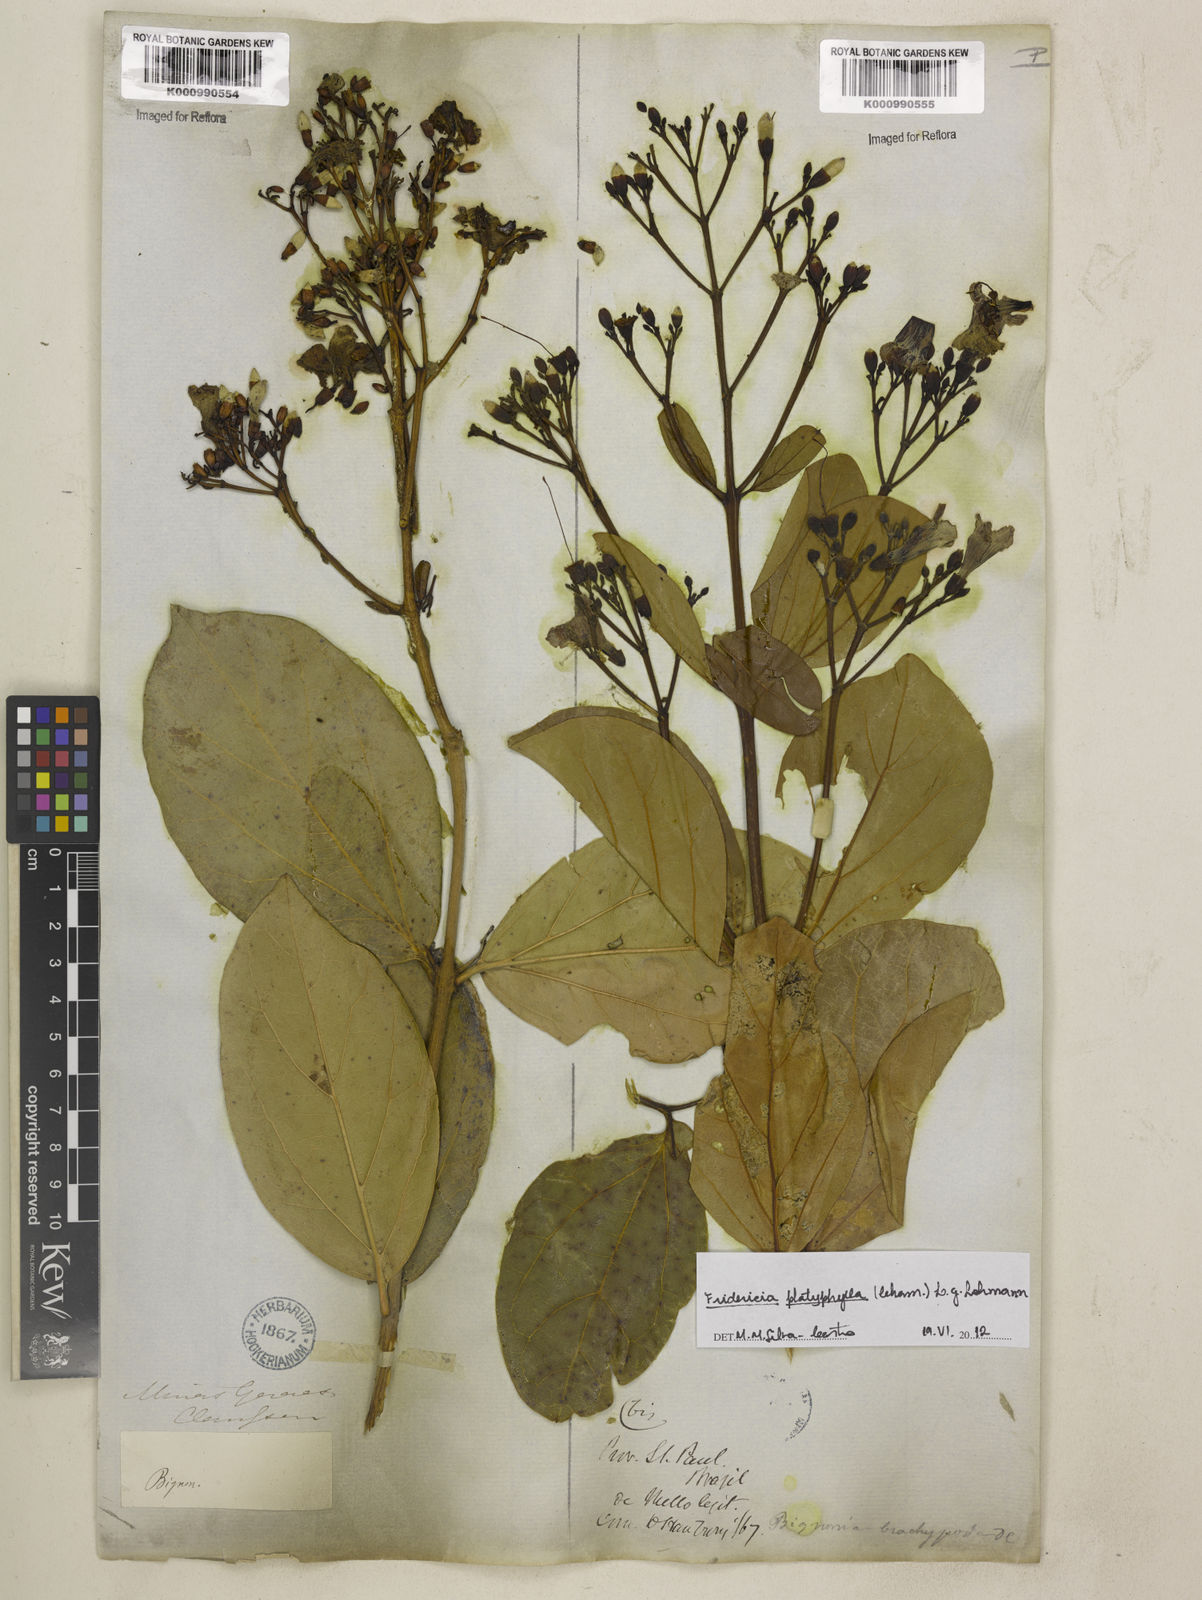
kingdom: Plantae
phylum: Tracheophyta
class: Magnoliopsida
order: Lamiales
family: Bignoniaceae
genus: Fridericia
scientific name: Fridericia platyphylla
